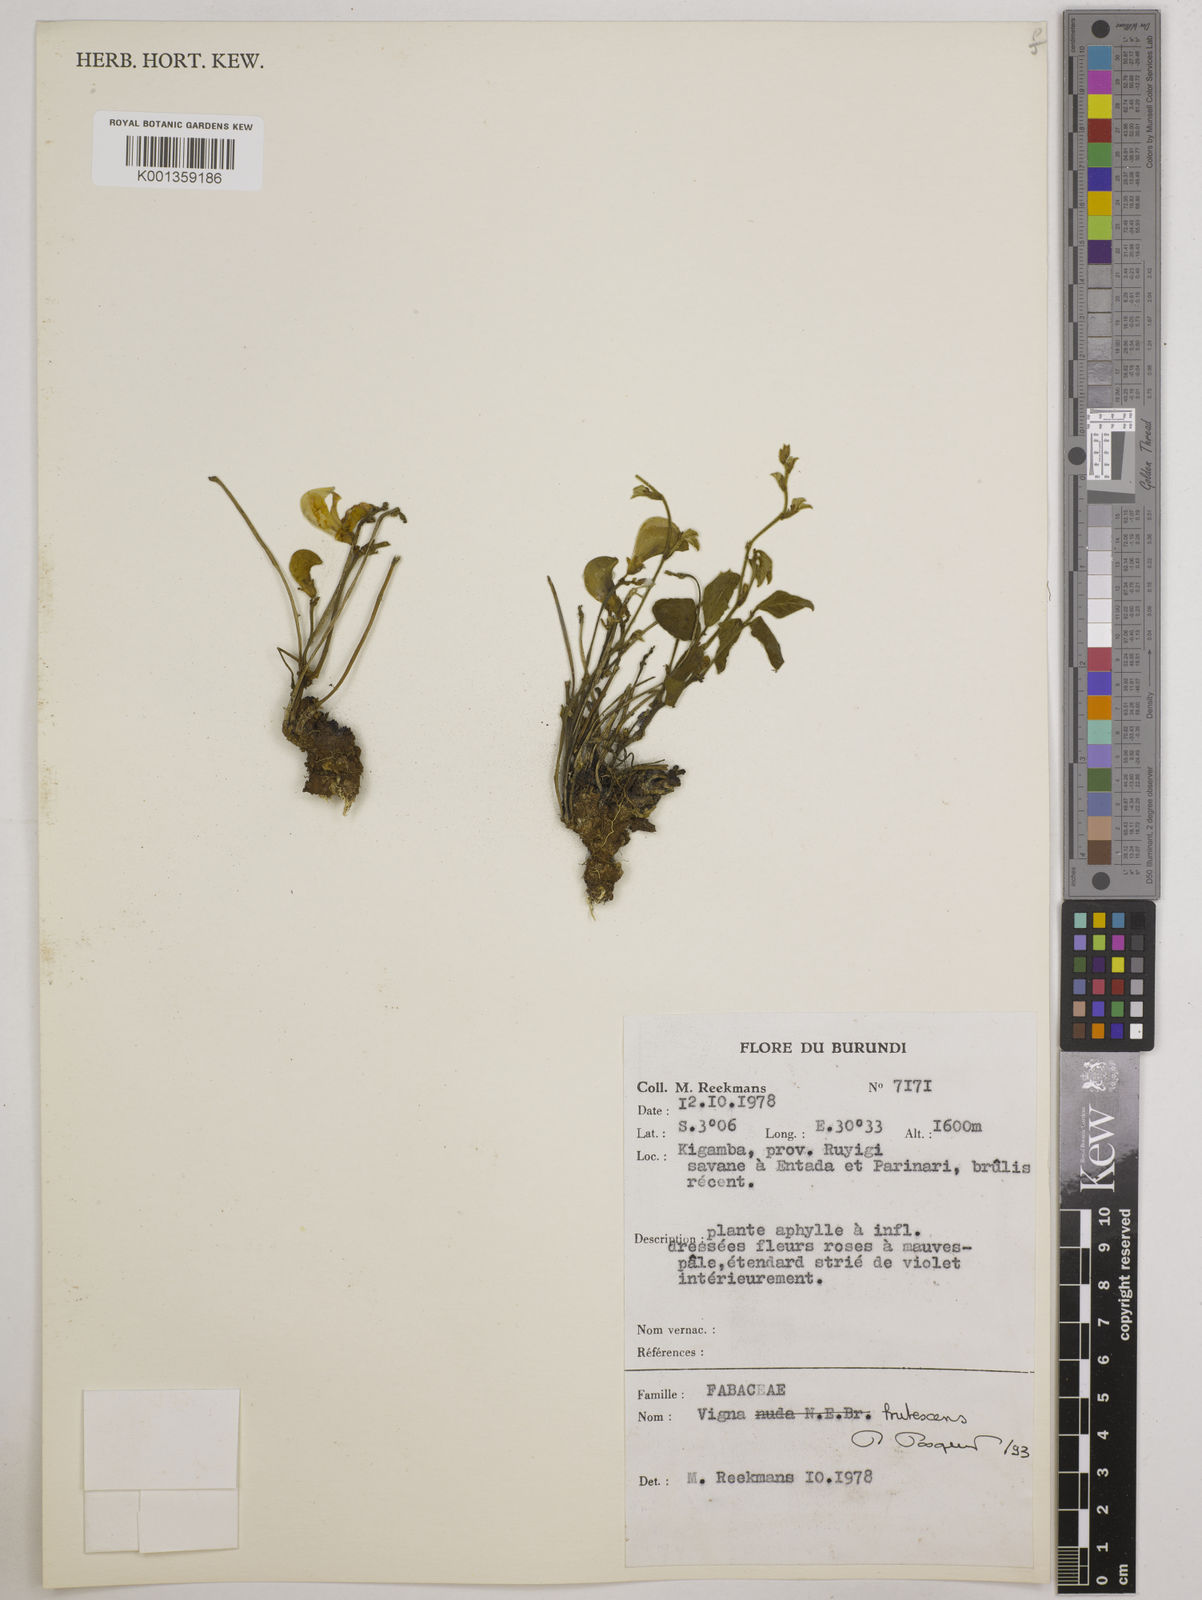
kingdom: Plantae
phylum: Tracheophyta
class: Magnoliopsida
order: Fabales
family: Fabaceae
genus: Vigna
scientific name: Vigna frutescens
